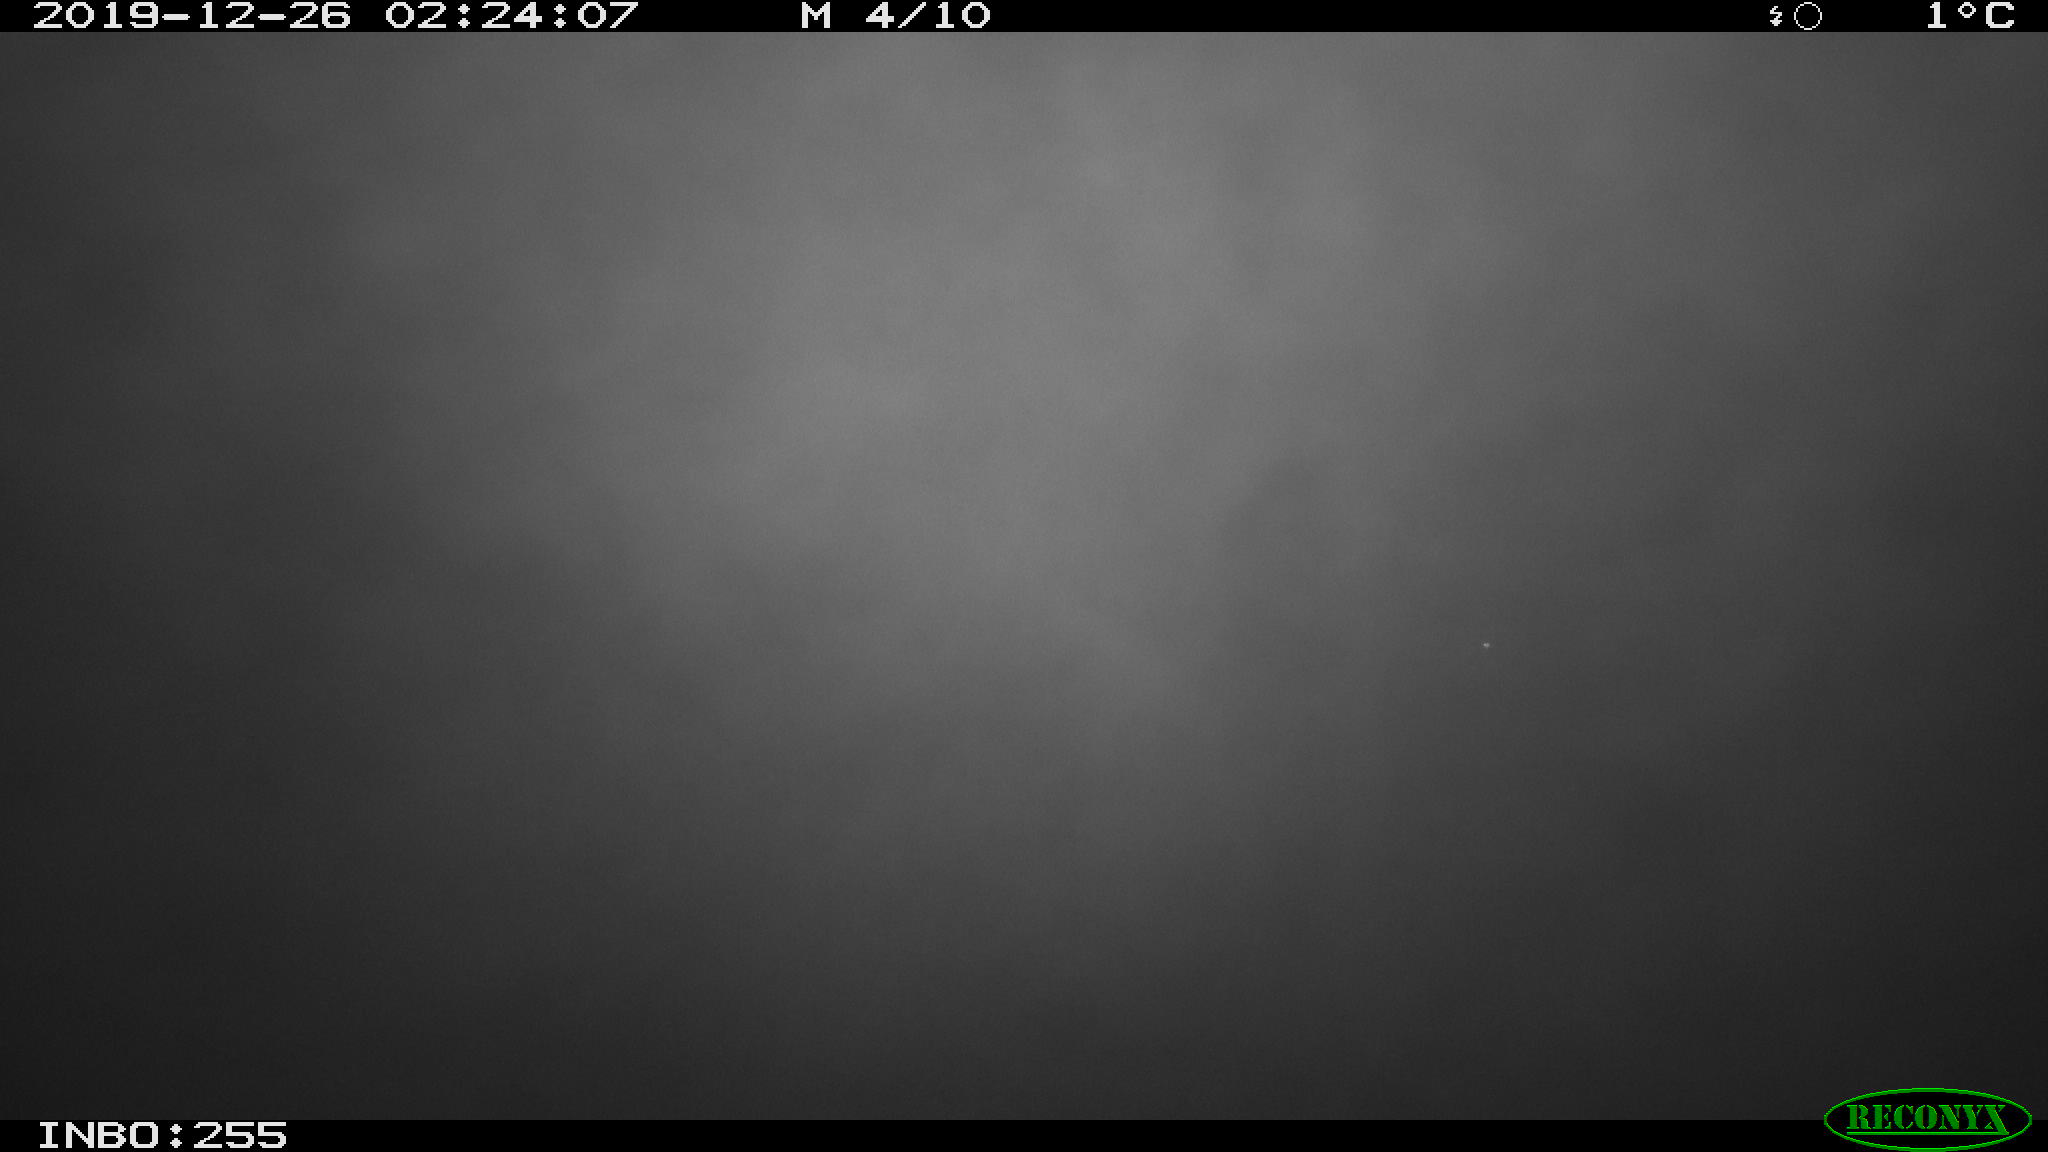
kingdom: Animalia
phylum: Chordata
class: Mammalia
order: Rodentia
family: Cricetidae
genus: Ondatra
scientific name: Ondatra zibethicus
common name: Muskrat
